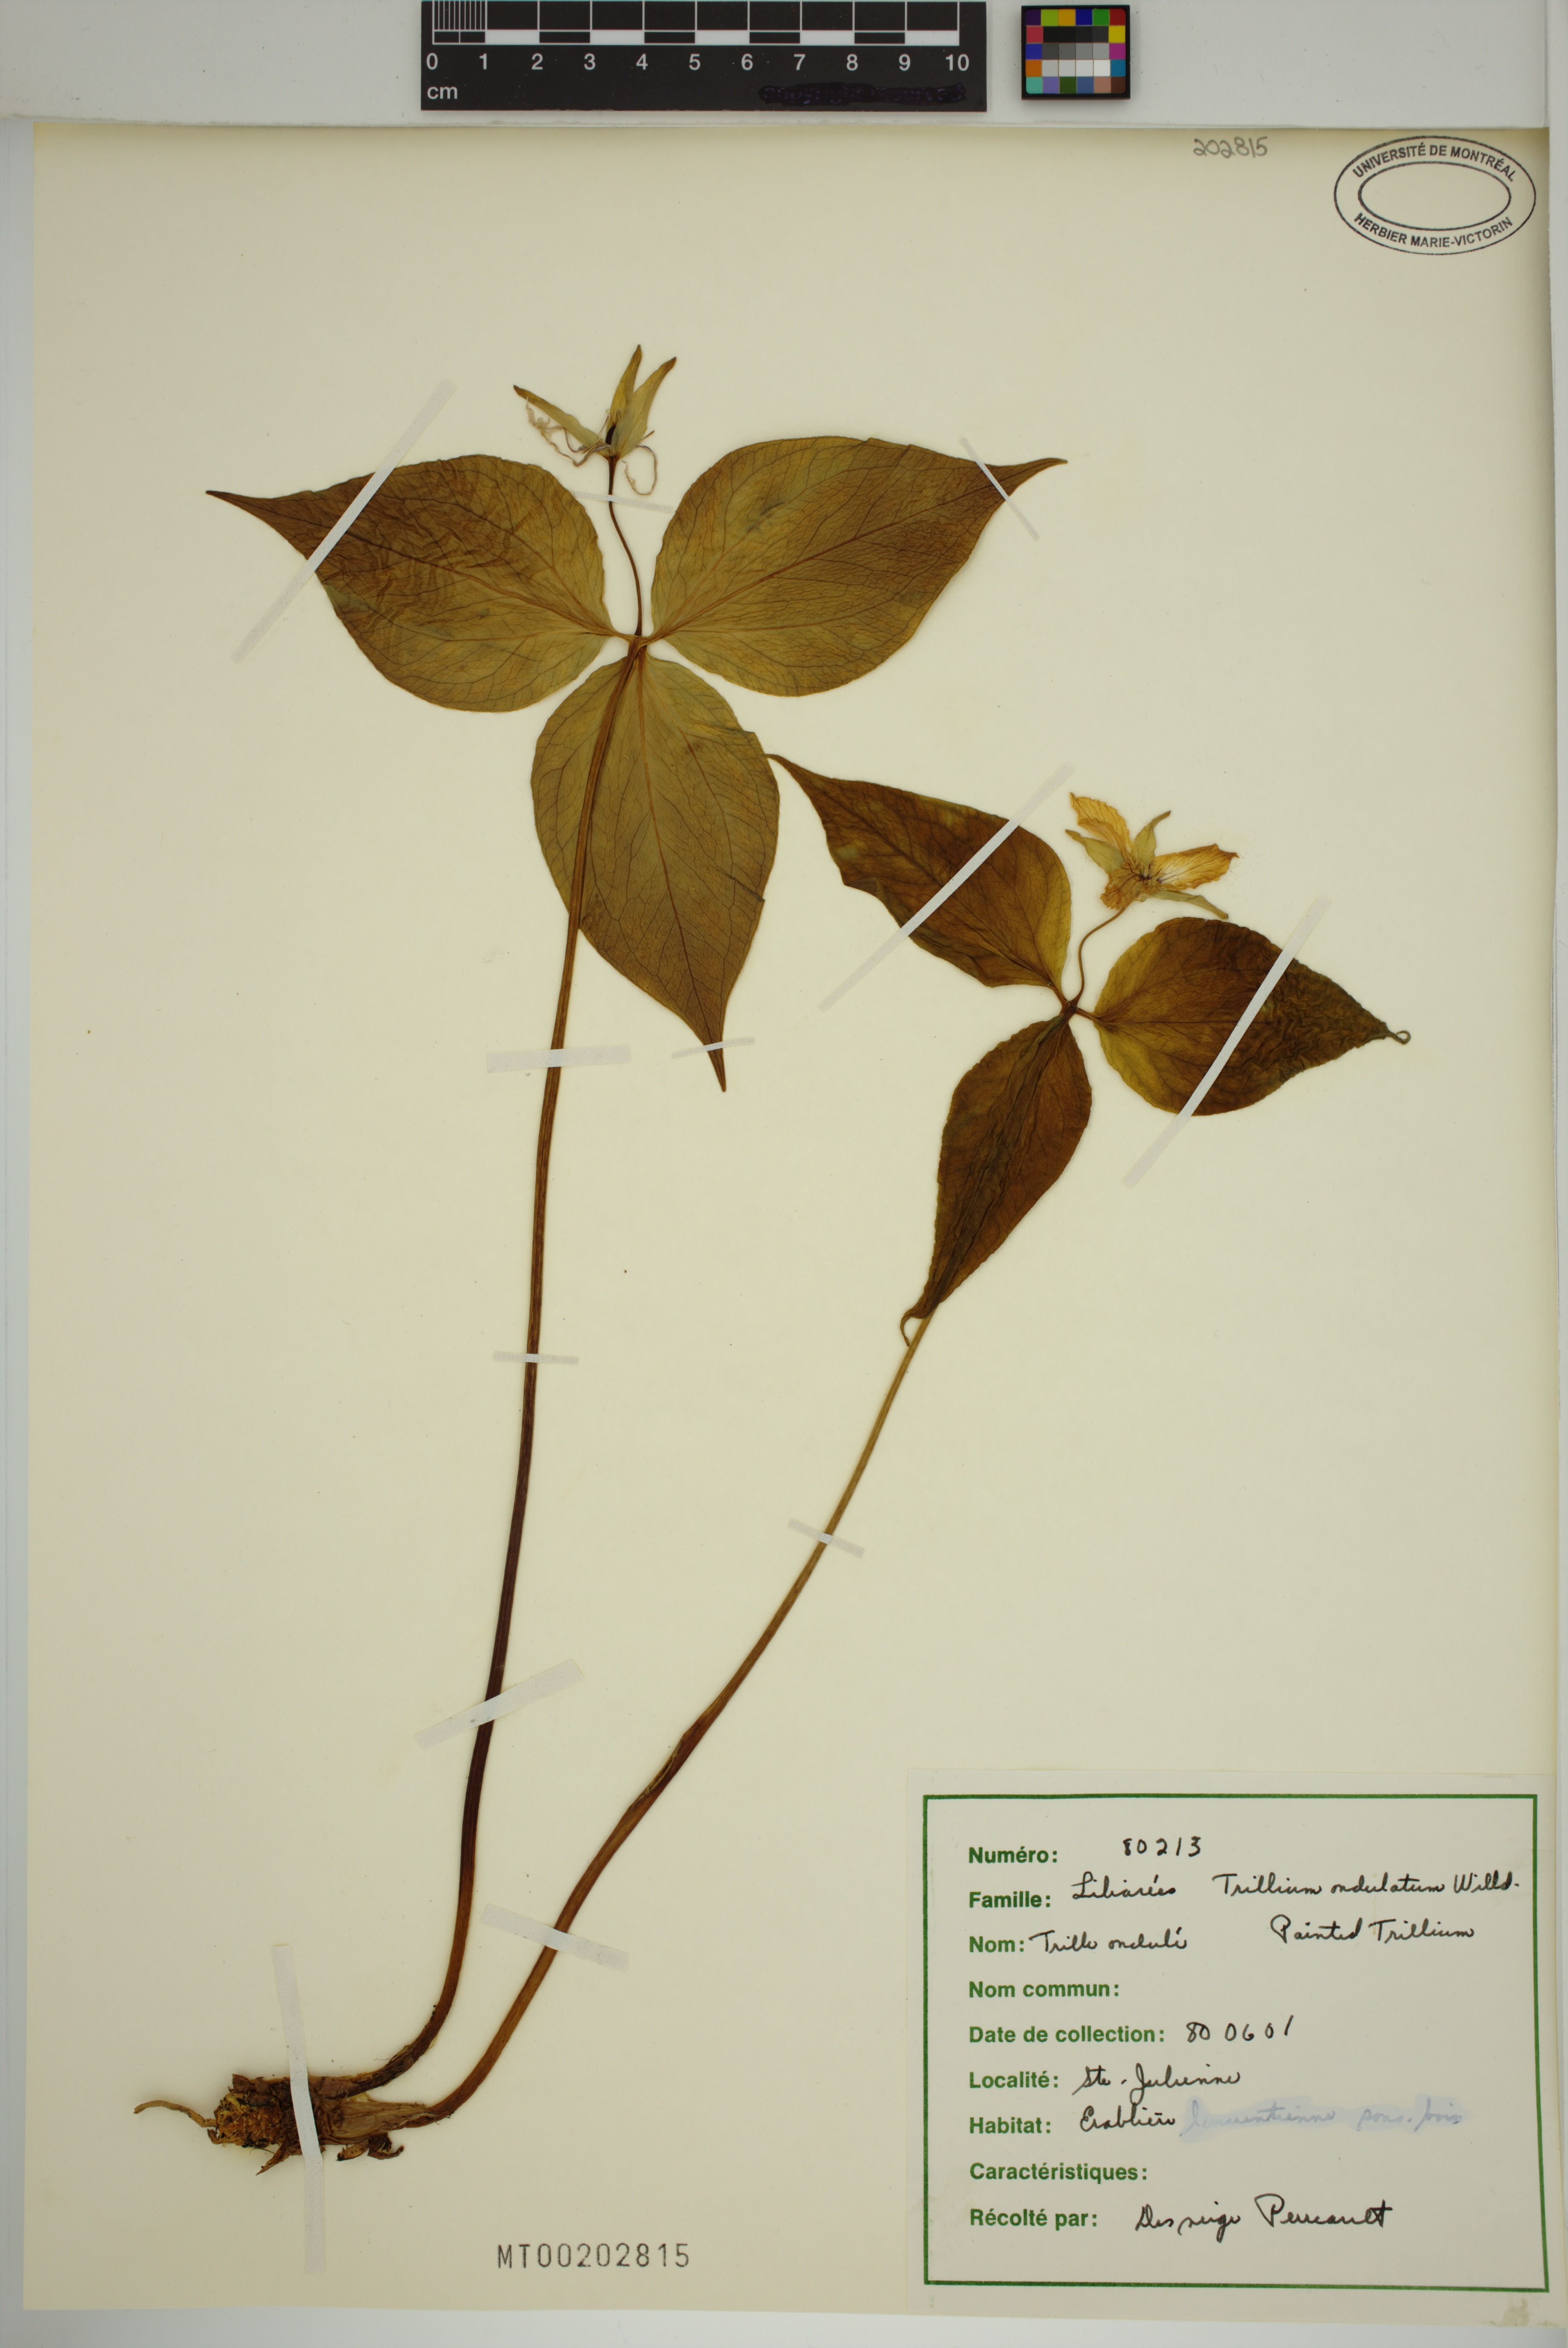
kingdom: Plantae
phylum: Tracheophyta
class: Liliopsida
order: Liliales
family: Melanthiaceae
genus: Trillium
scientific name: Trillium undulatum
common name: Paint trillium
